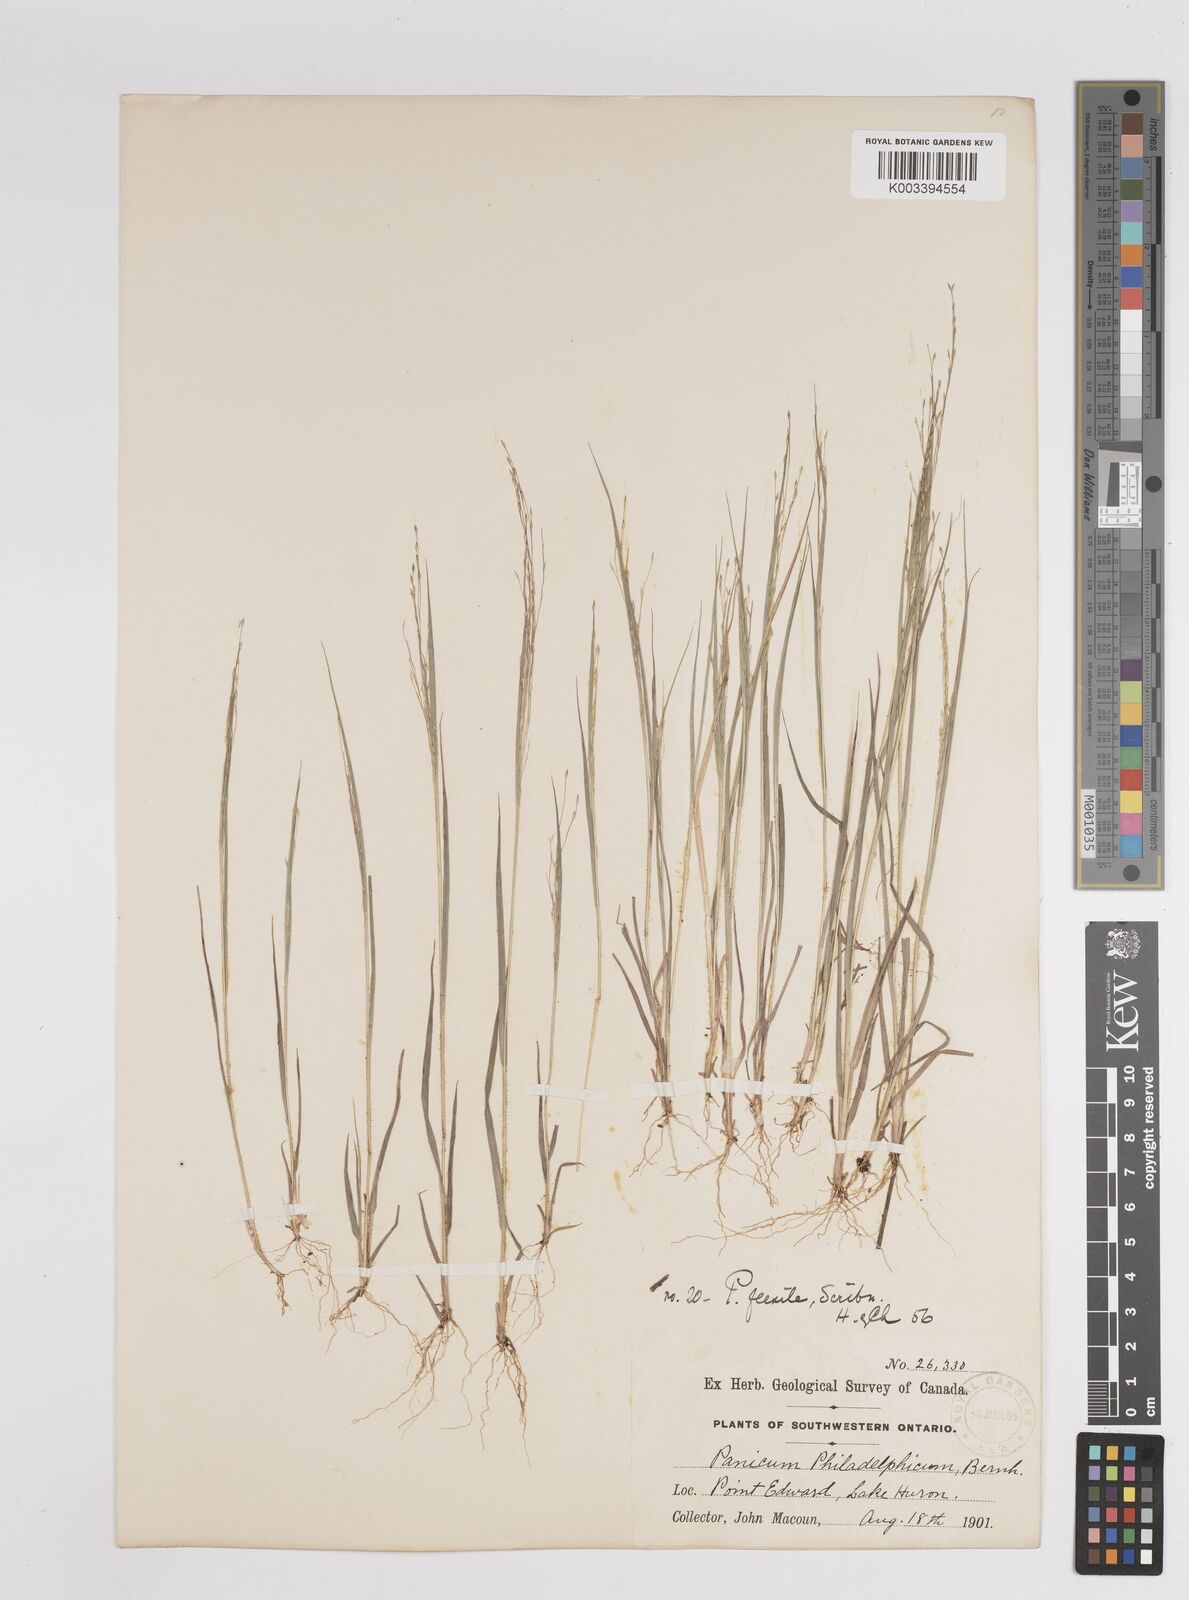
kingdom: Plantae
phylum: Tracheophyta
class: Liliopsida
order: Poales
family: Poaceae
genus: Panicum
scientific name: Panicum flexile
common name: Wiry panicgrass
